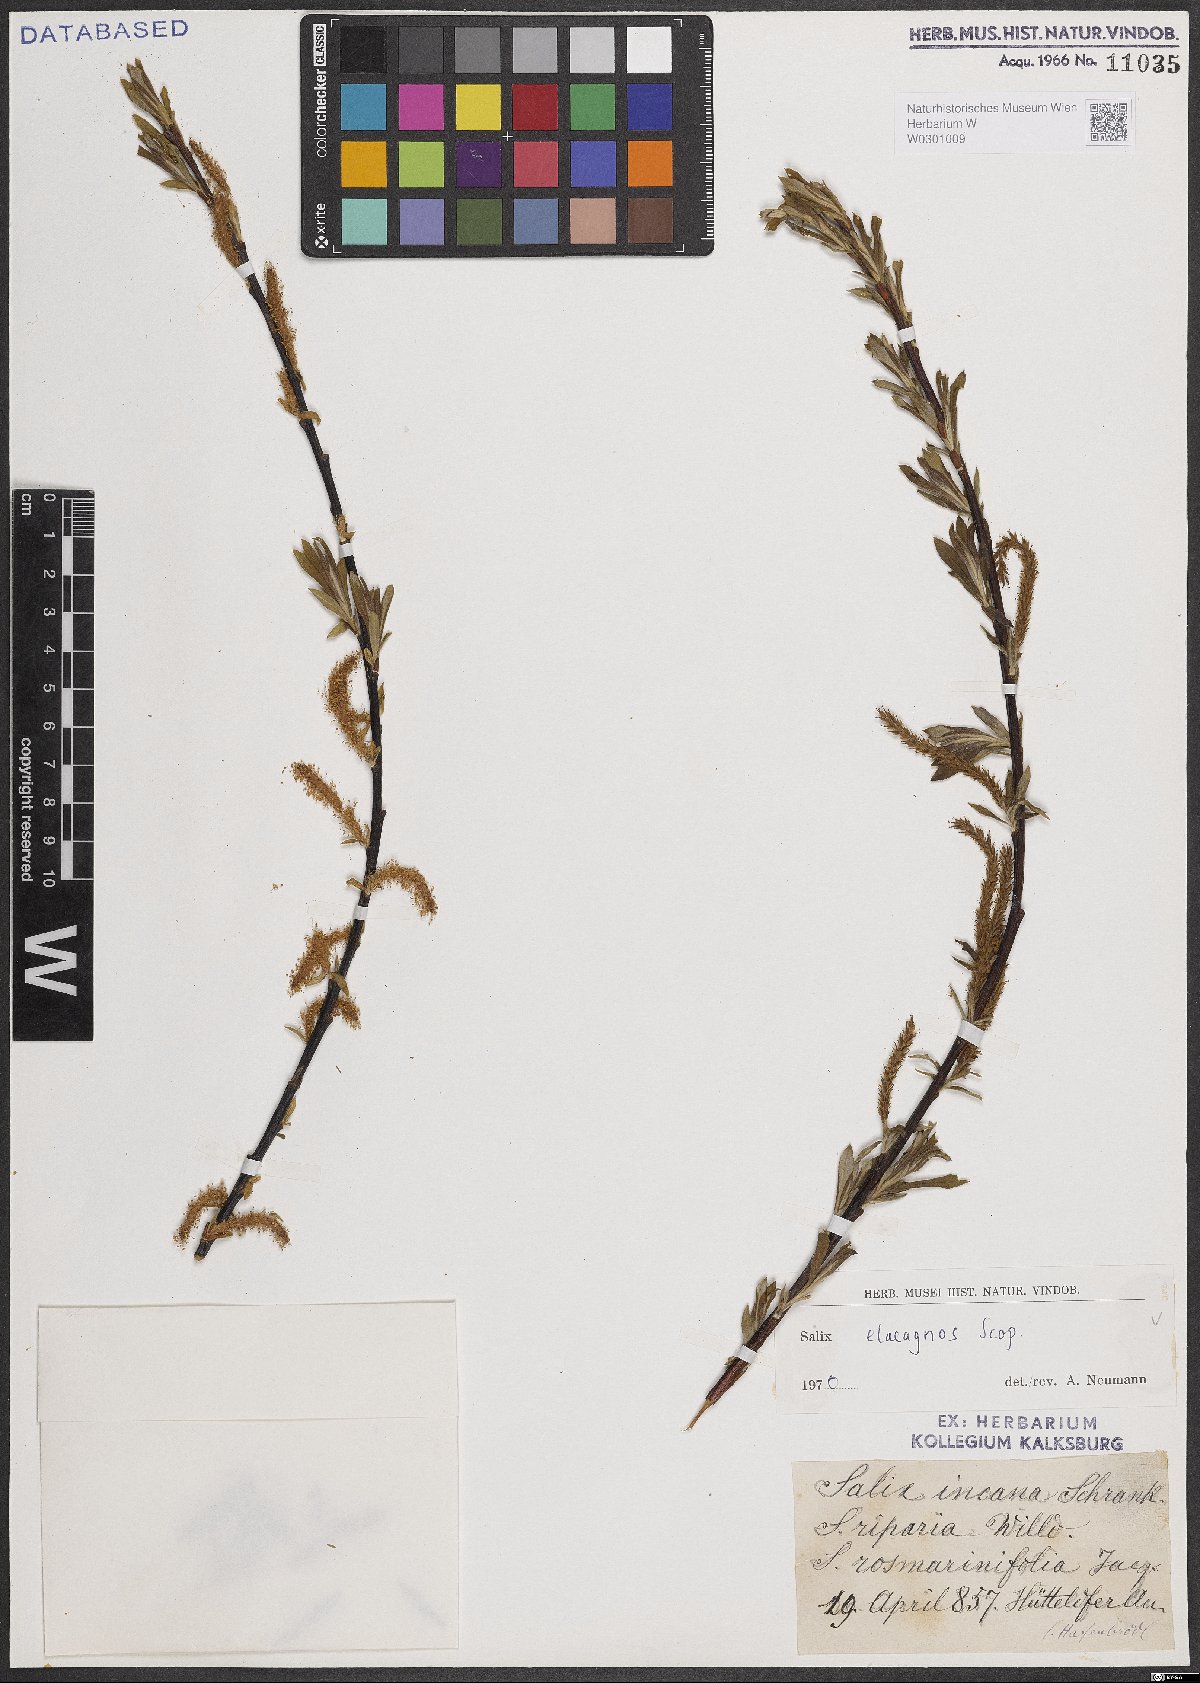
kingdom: Plantae
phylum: Tracheophyta
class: Magnoliopsida
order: Malpighiales
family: Salicaceae
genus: Salix
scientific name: Salix eleagnos
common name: Elaeagnus willow
